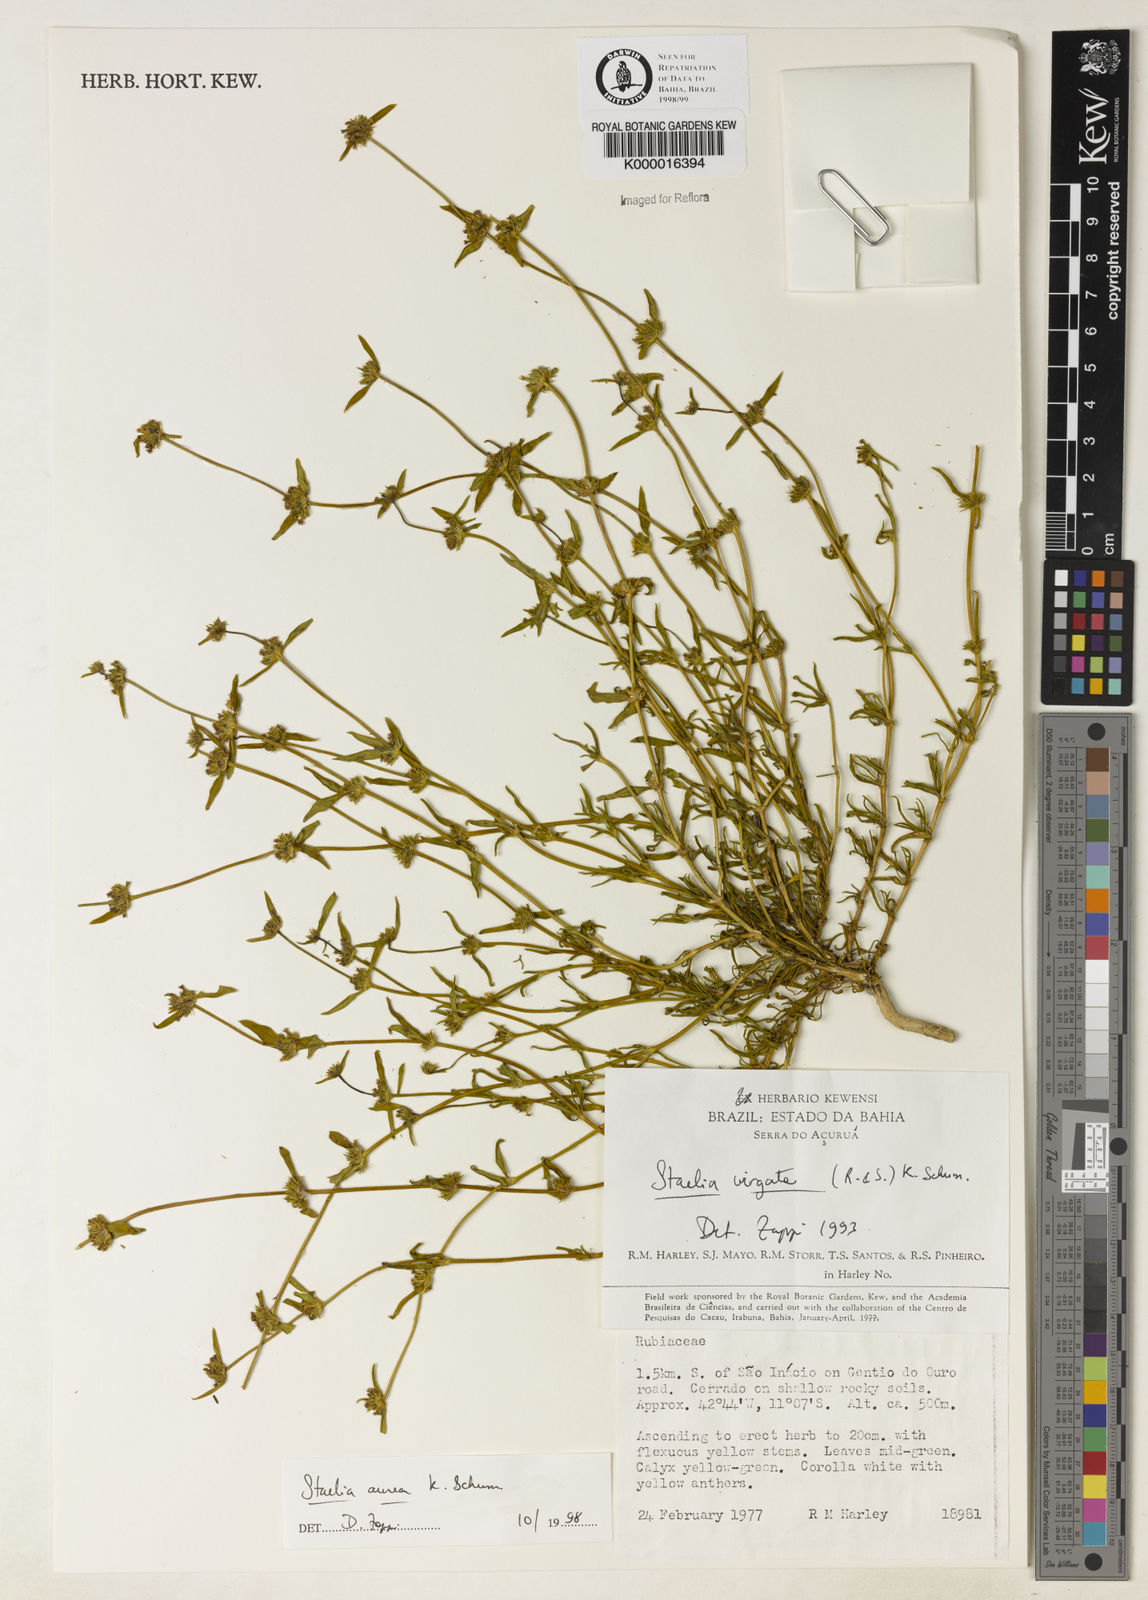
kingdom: Plantae
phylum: Tracheophyta
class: Magnoliopsida
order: Gentianales
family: Rubiaceae
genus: Staelia
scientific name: Staelia virgata
